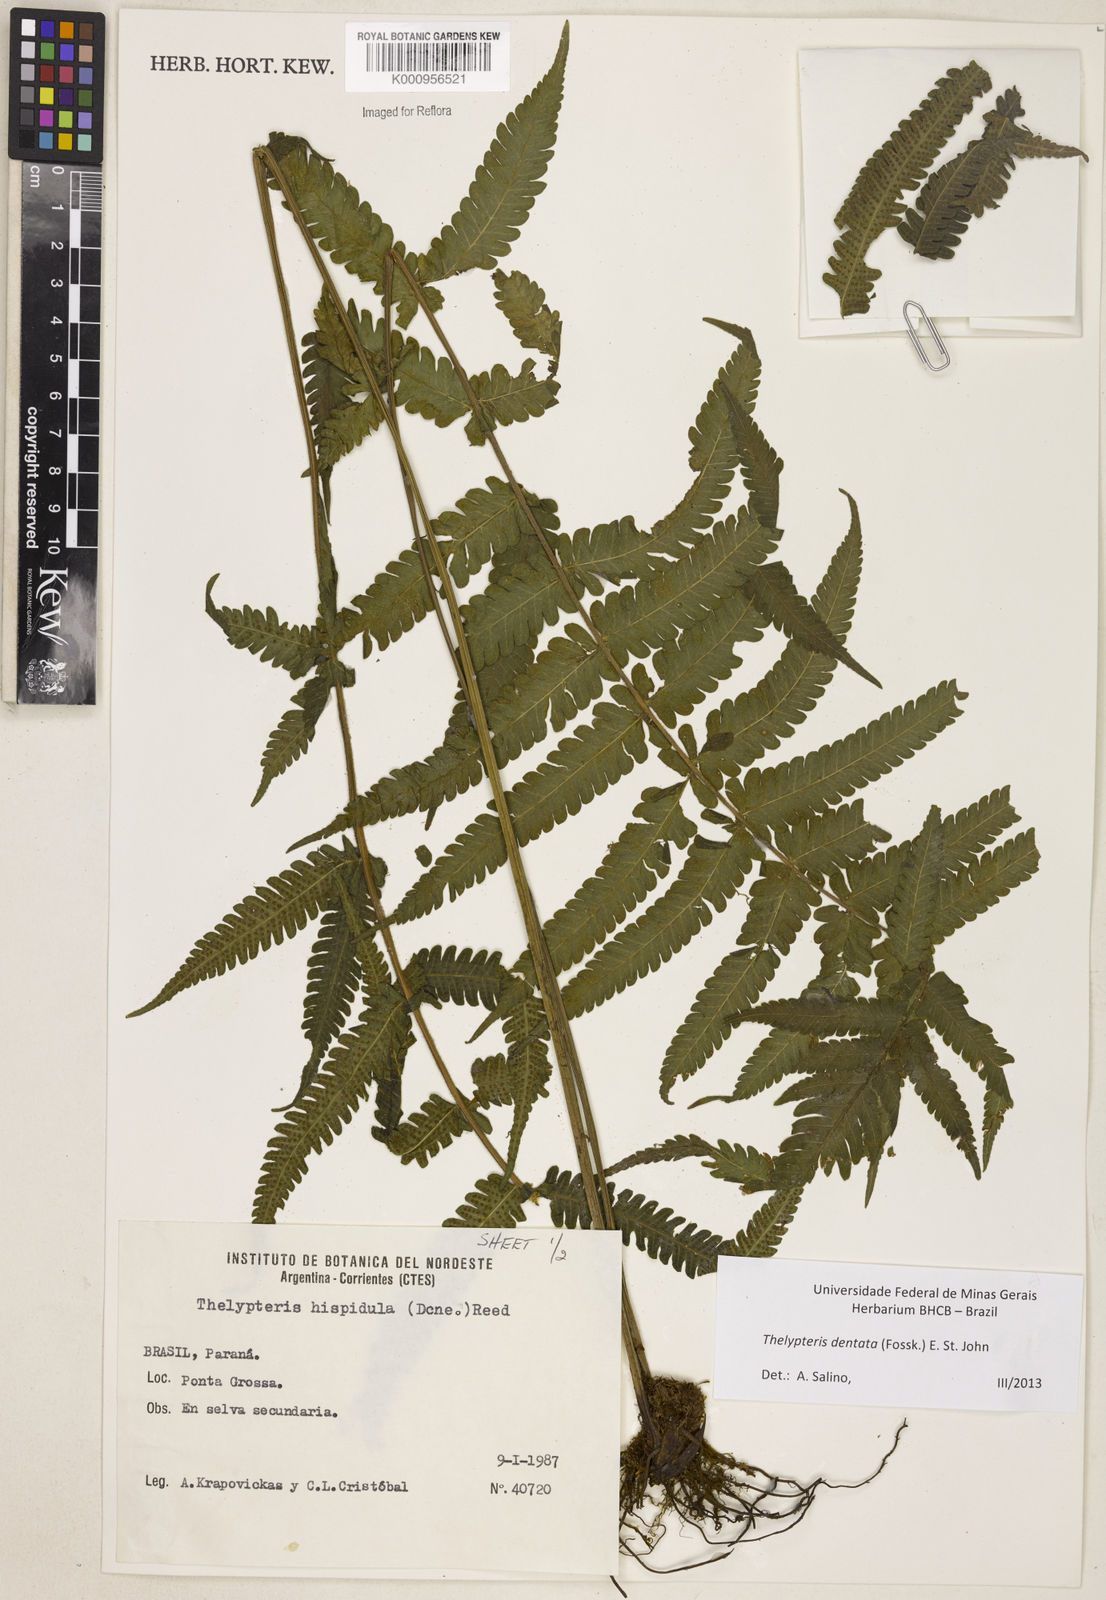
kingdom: Plantae
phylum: Tracheophyta
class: Polypodiopsida
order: Polypodiales
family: Thelypteridaceae
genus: Christella
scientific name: Christella dentata
